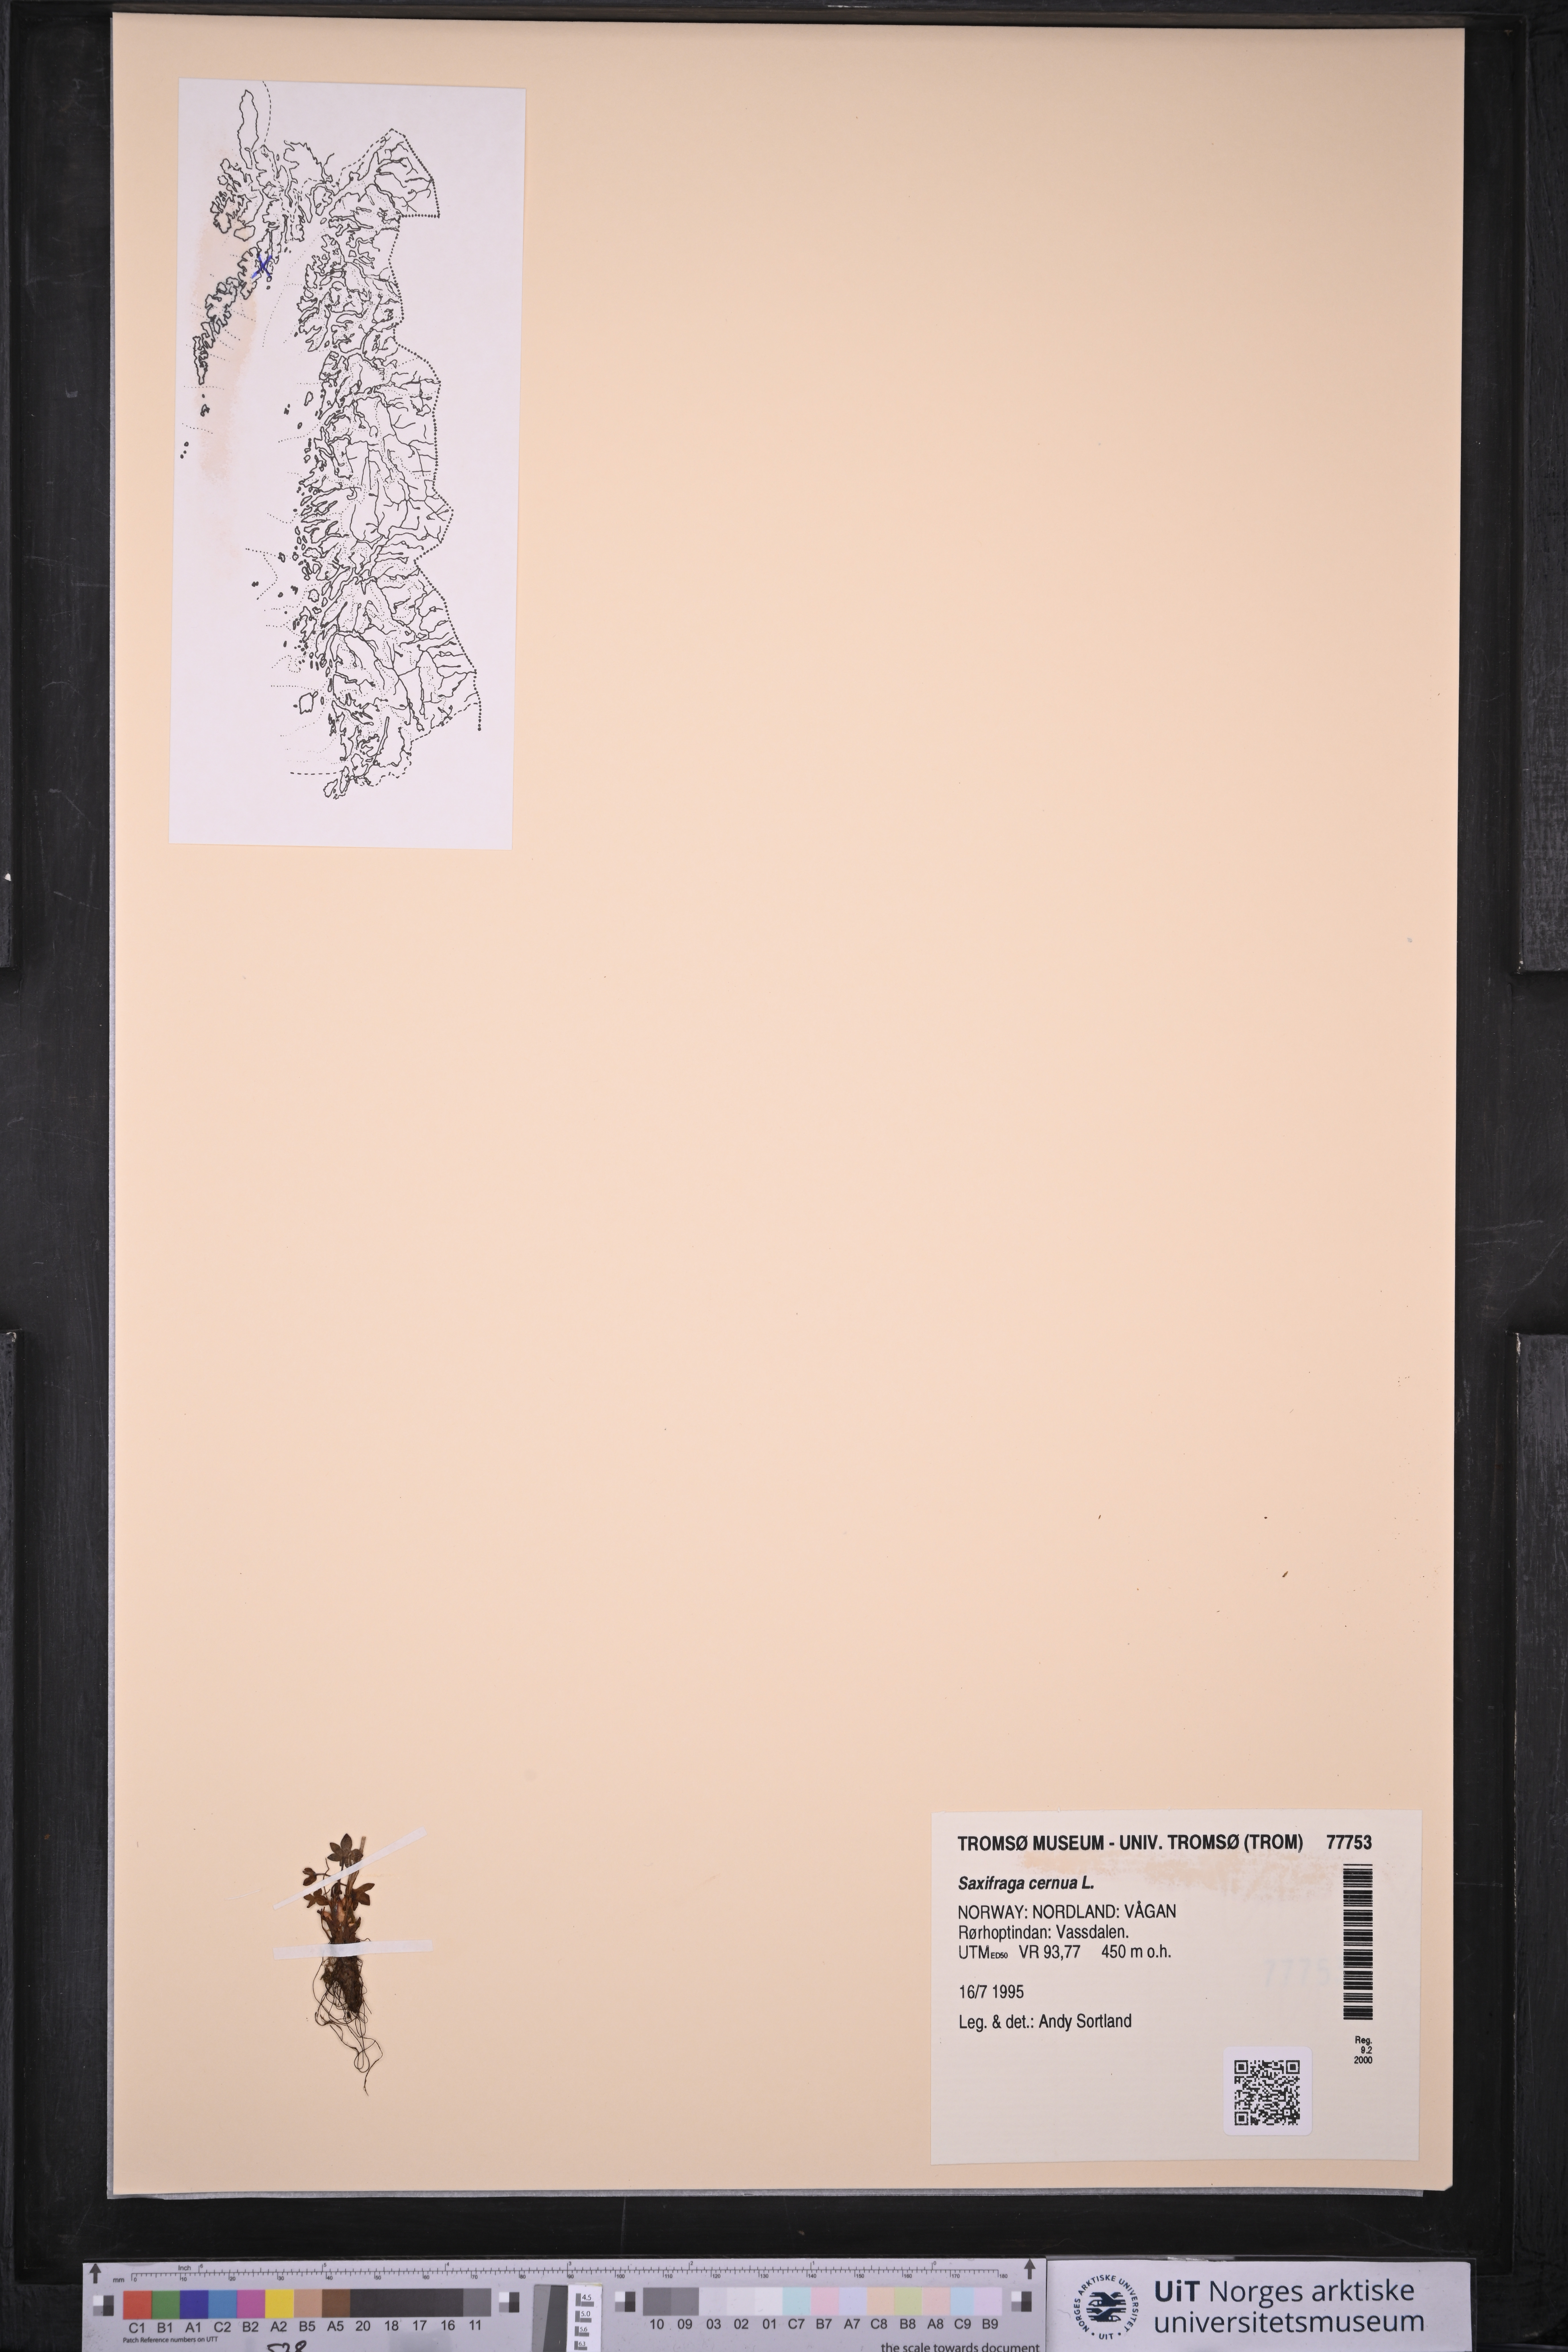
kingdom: Plantae
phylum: Tracheophyta
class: Magnoliopsida
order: Saxifragales
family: Saxifragaceae
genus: Saxifraga
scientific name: Saxifraga cernua
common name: Drooping saxifrage
